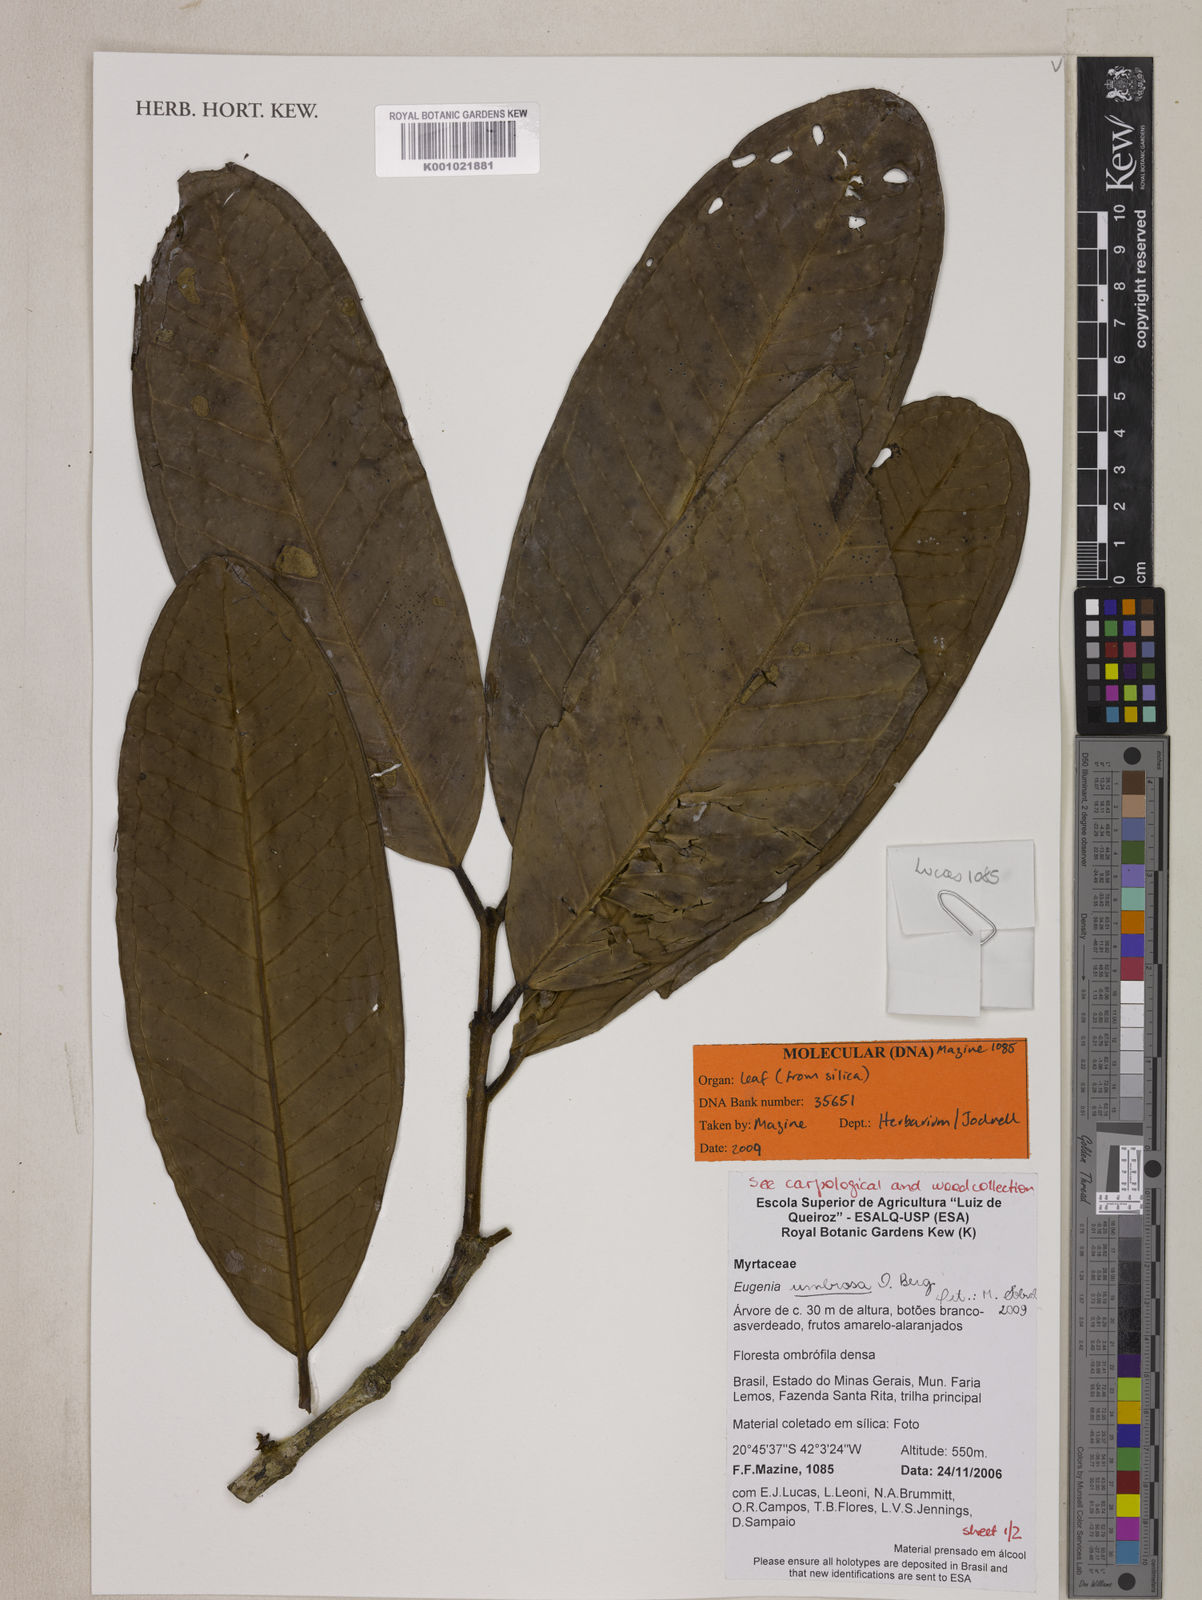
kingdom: Plantae
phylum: Tracheophyta
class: Magnoliopsida
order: Myrtales
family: Myrtaceae
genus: Eugenia
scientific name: Eugenia umbrosa
